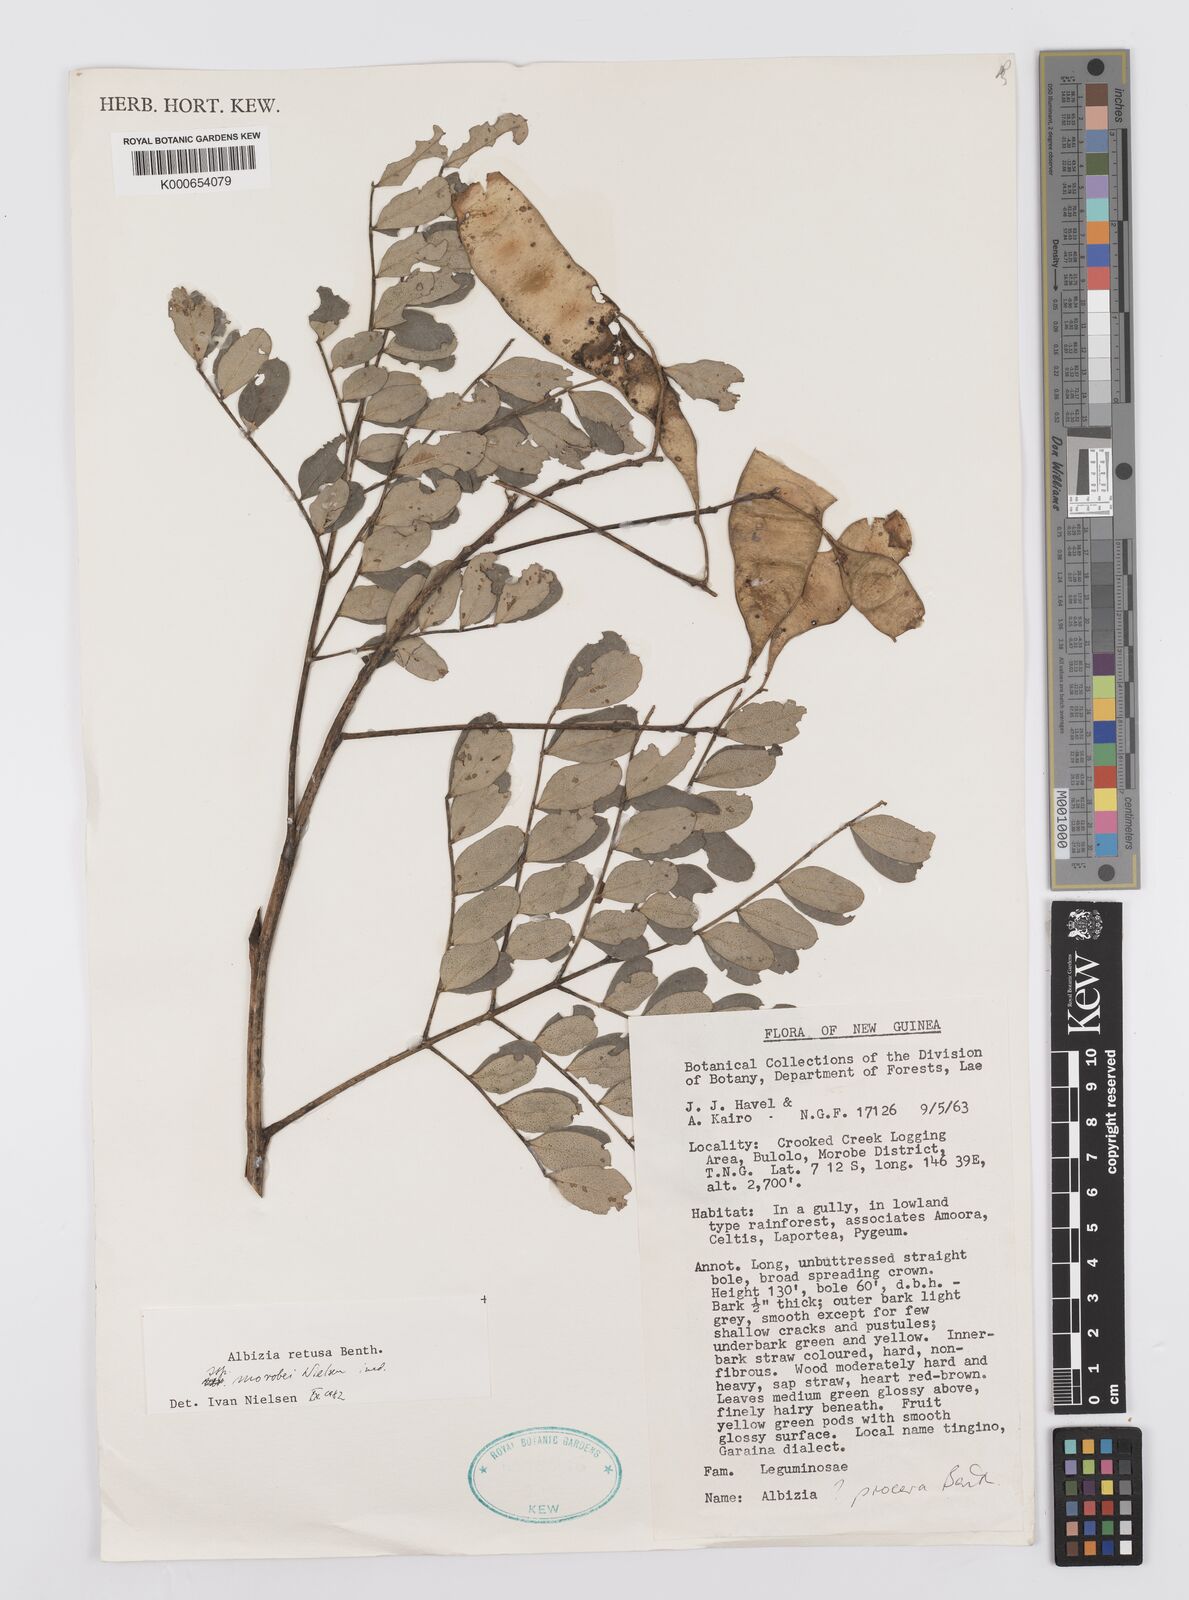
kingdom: Plantae
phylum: Tracheophyta
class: Magnoliopsida
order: Fabales
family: Fabaceae
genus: Albizia
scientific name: Albizia retusa
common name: Sea albizia
